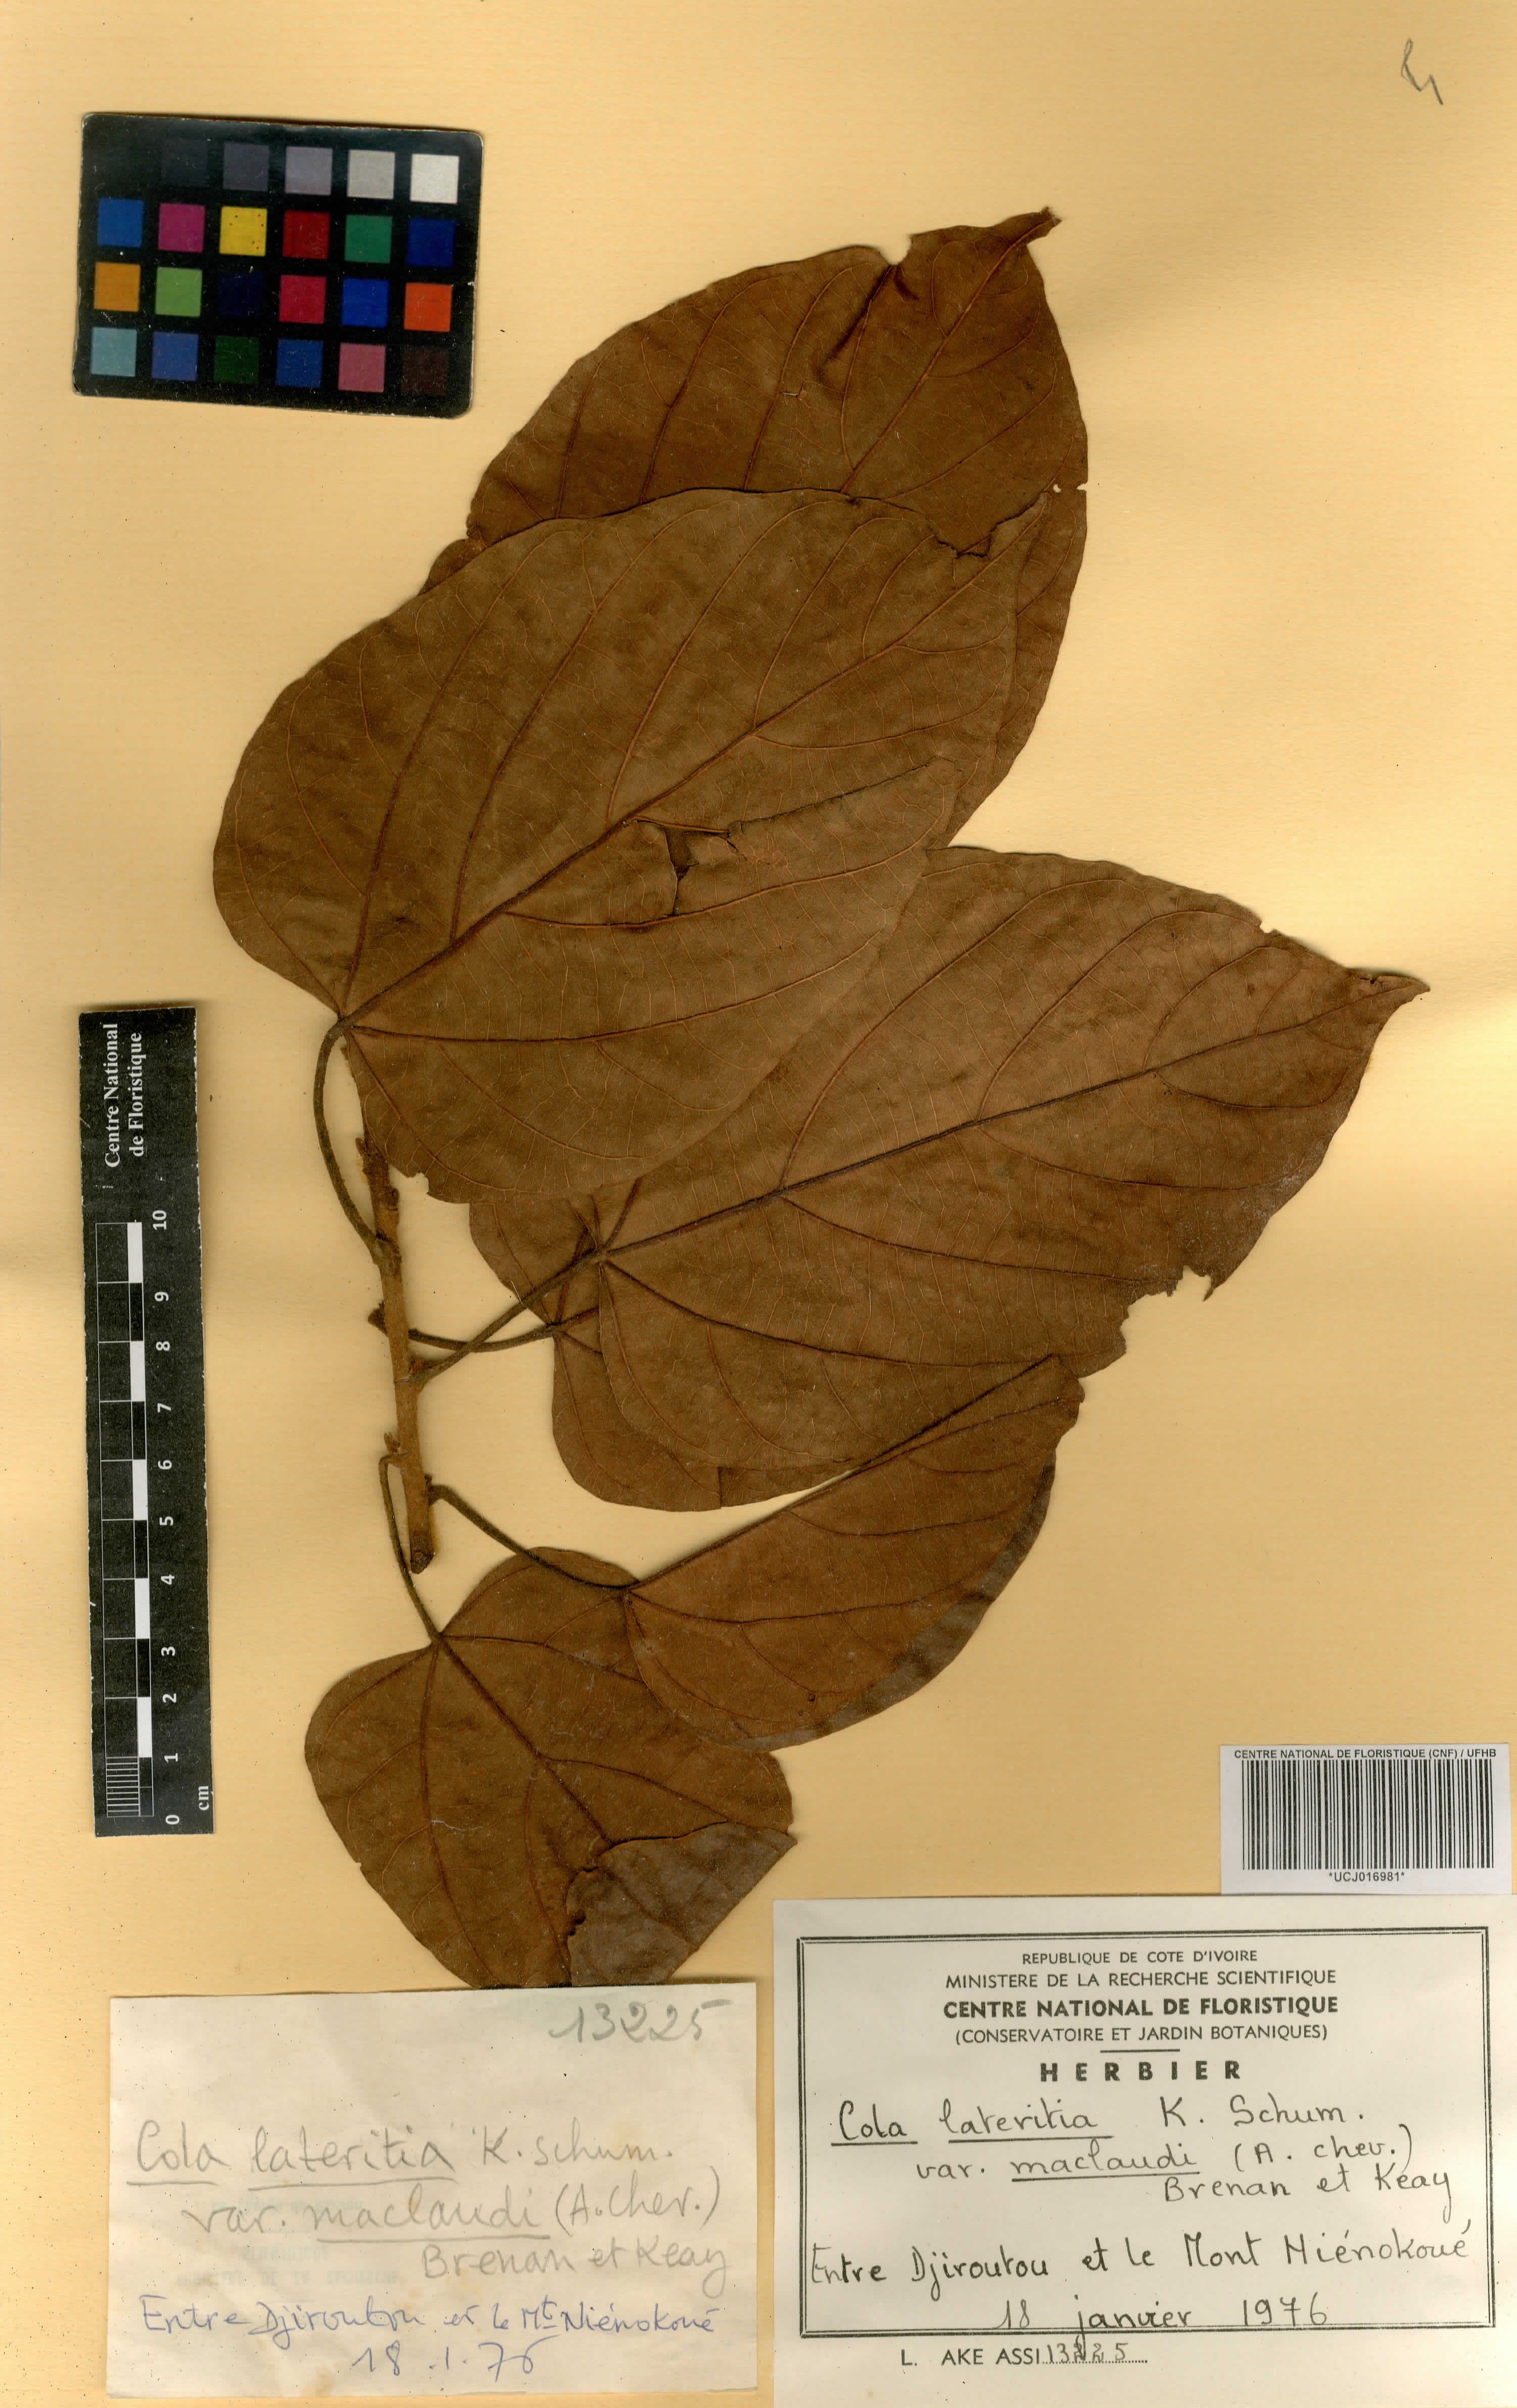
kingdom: Plantae
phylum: Tracheophyta
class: Magnoliopsida
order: Malvales
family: Malvaceae
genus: Cola
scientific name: Cola lateritia
